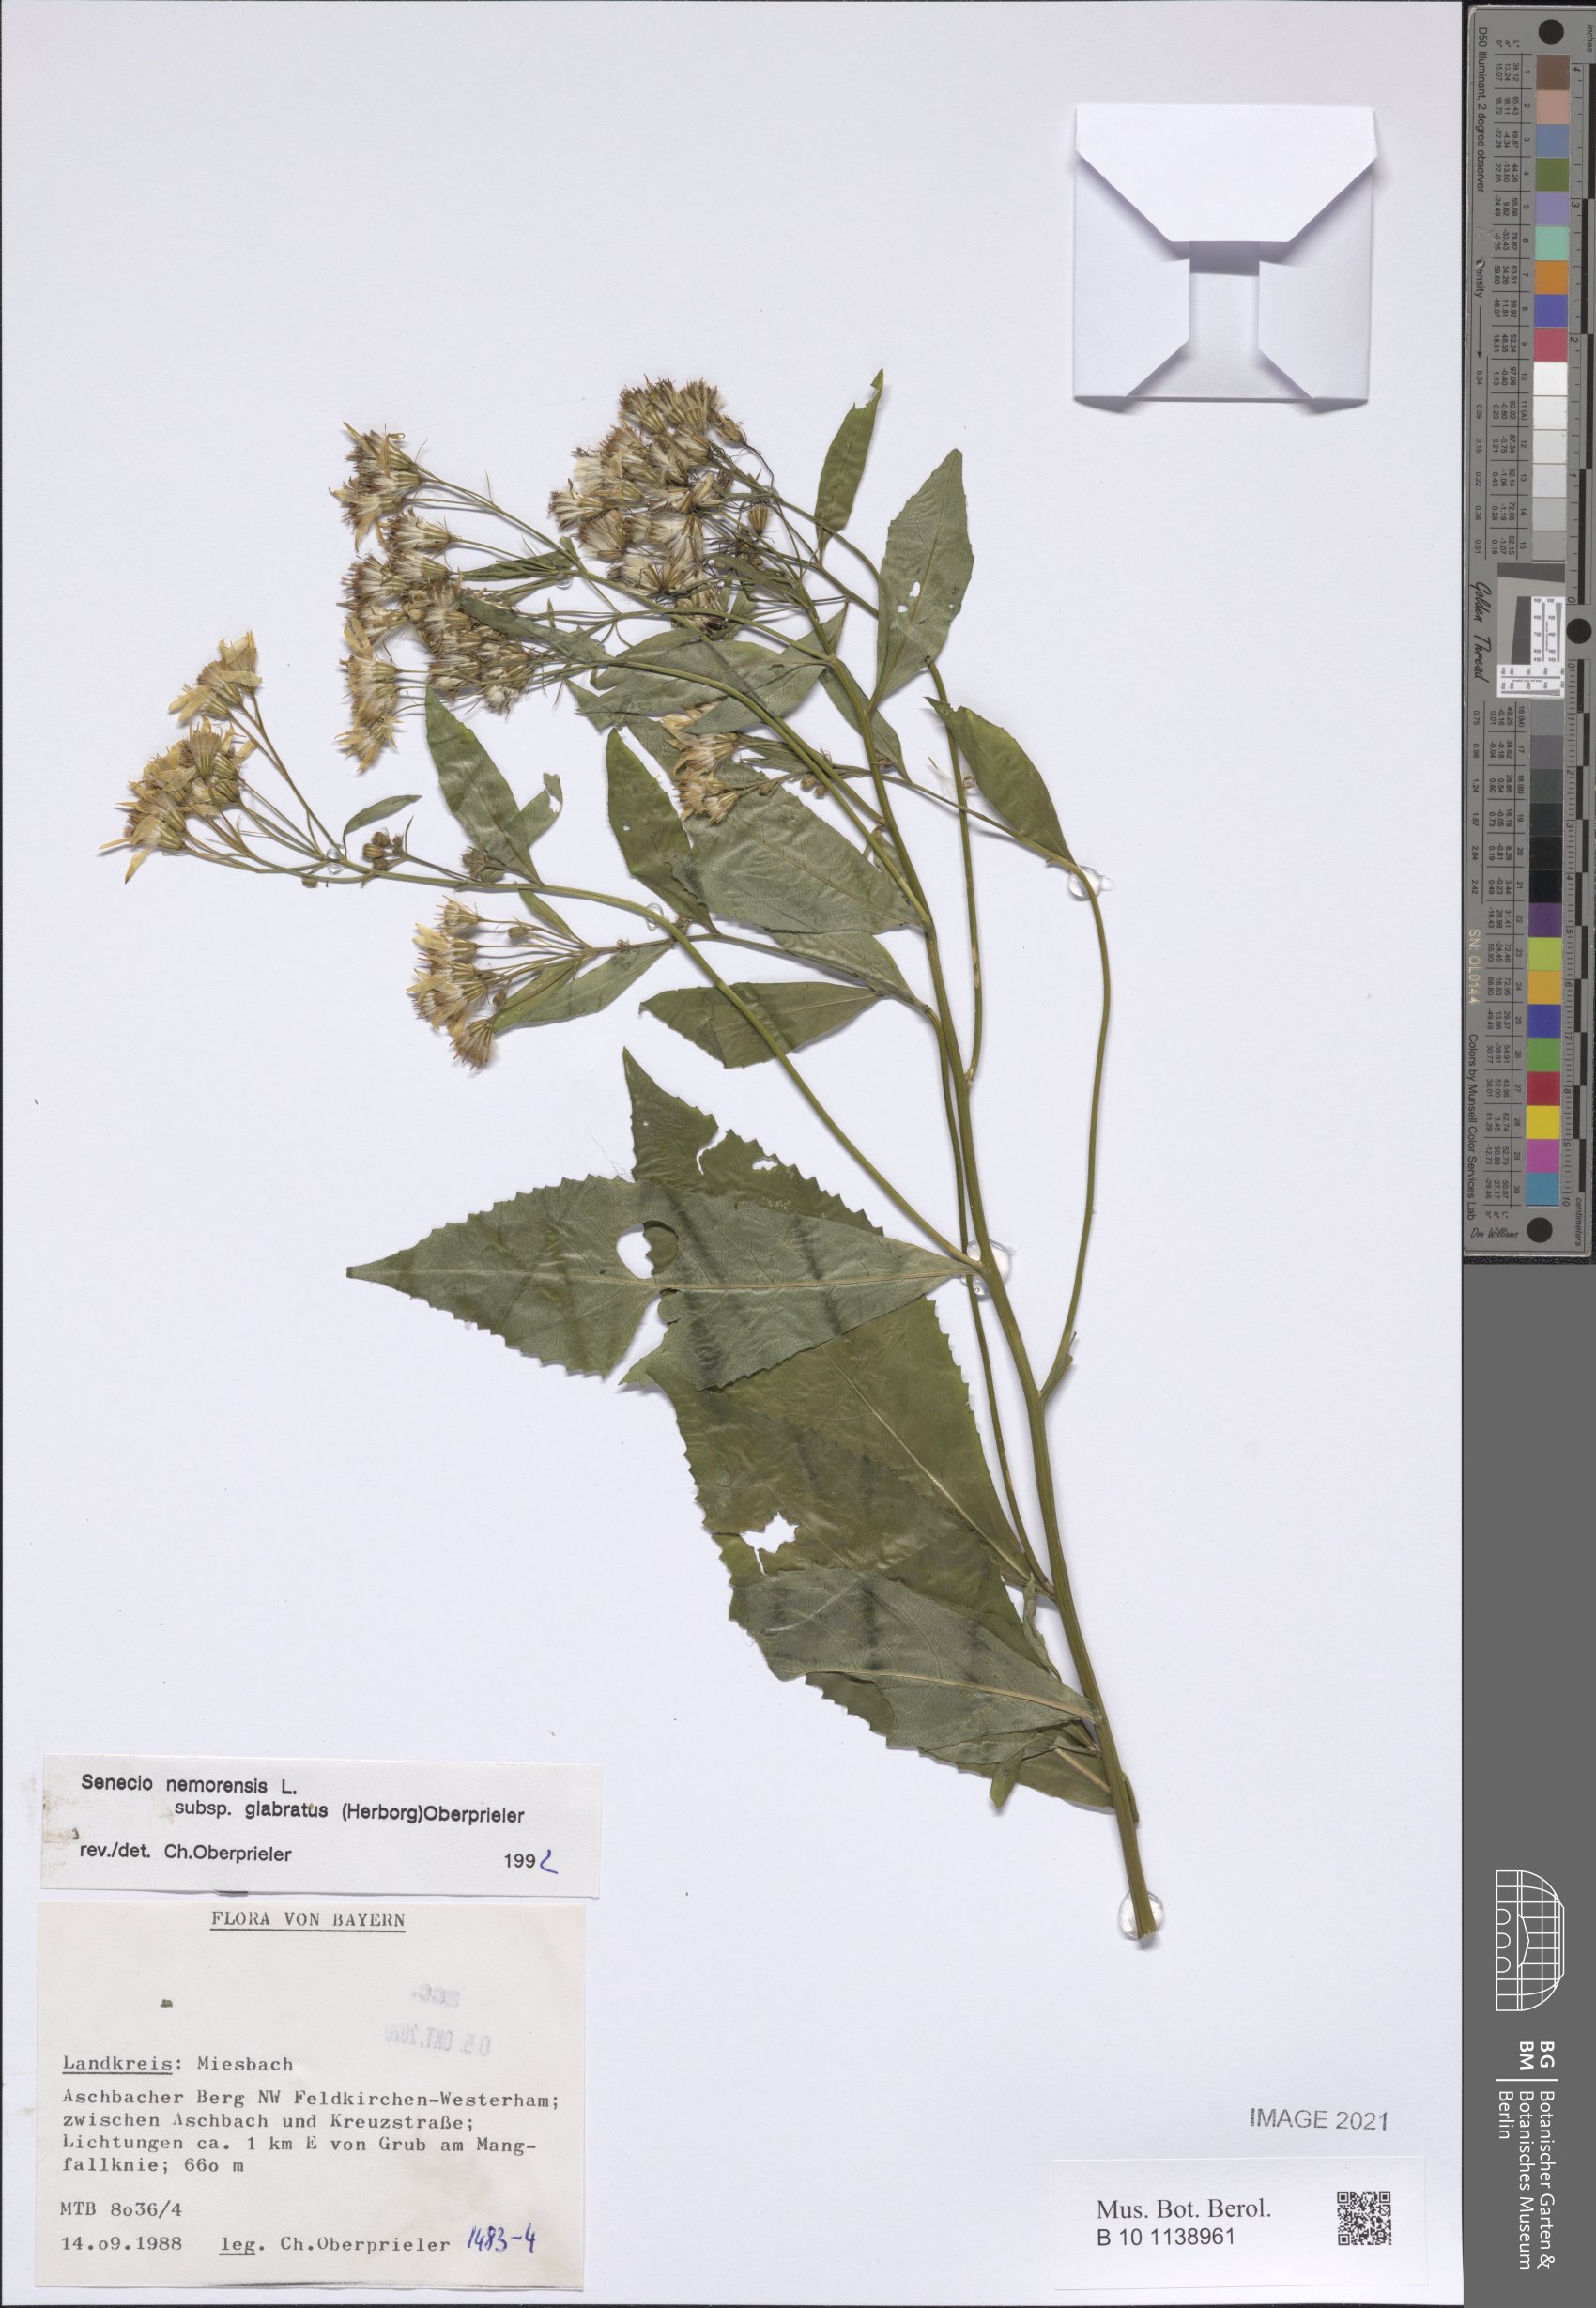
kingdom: Plantae
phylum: Tracheophyta
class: Magnoliopsida
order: Asterales
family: Asteraceae
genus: Senecio
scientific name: Senecio germanicus
